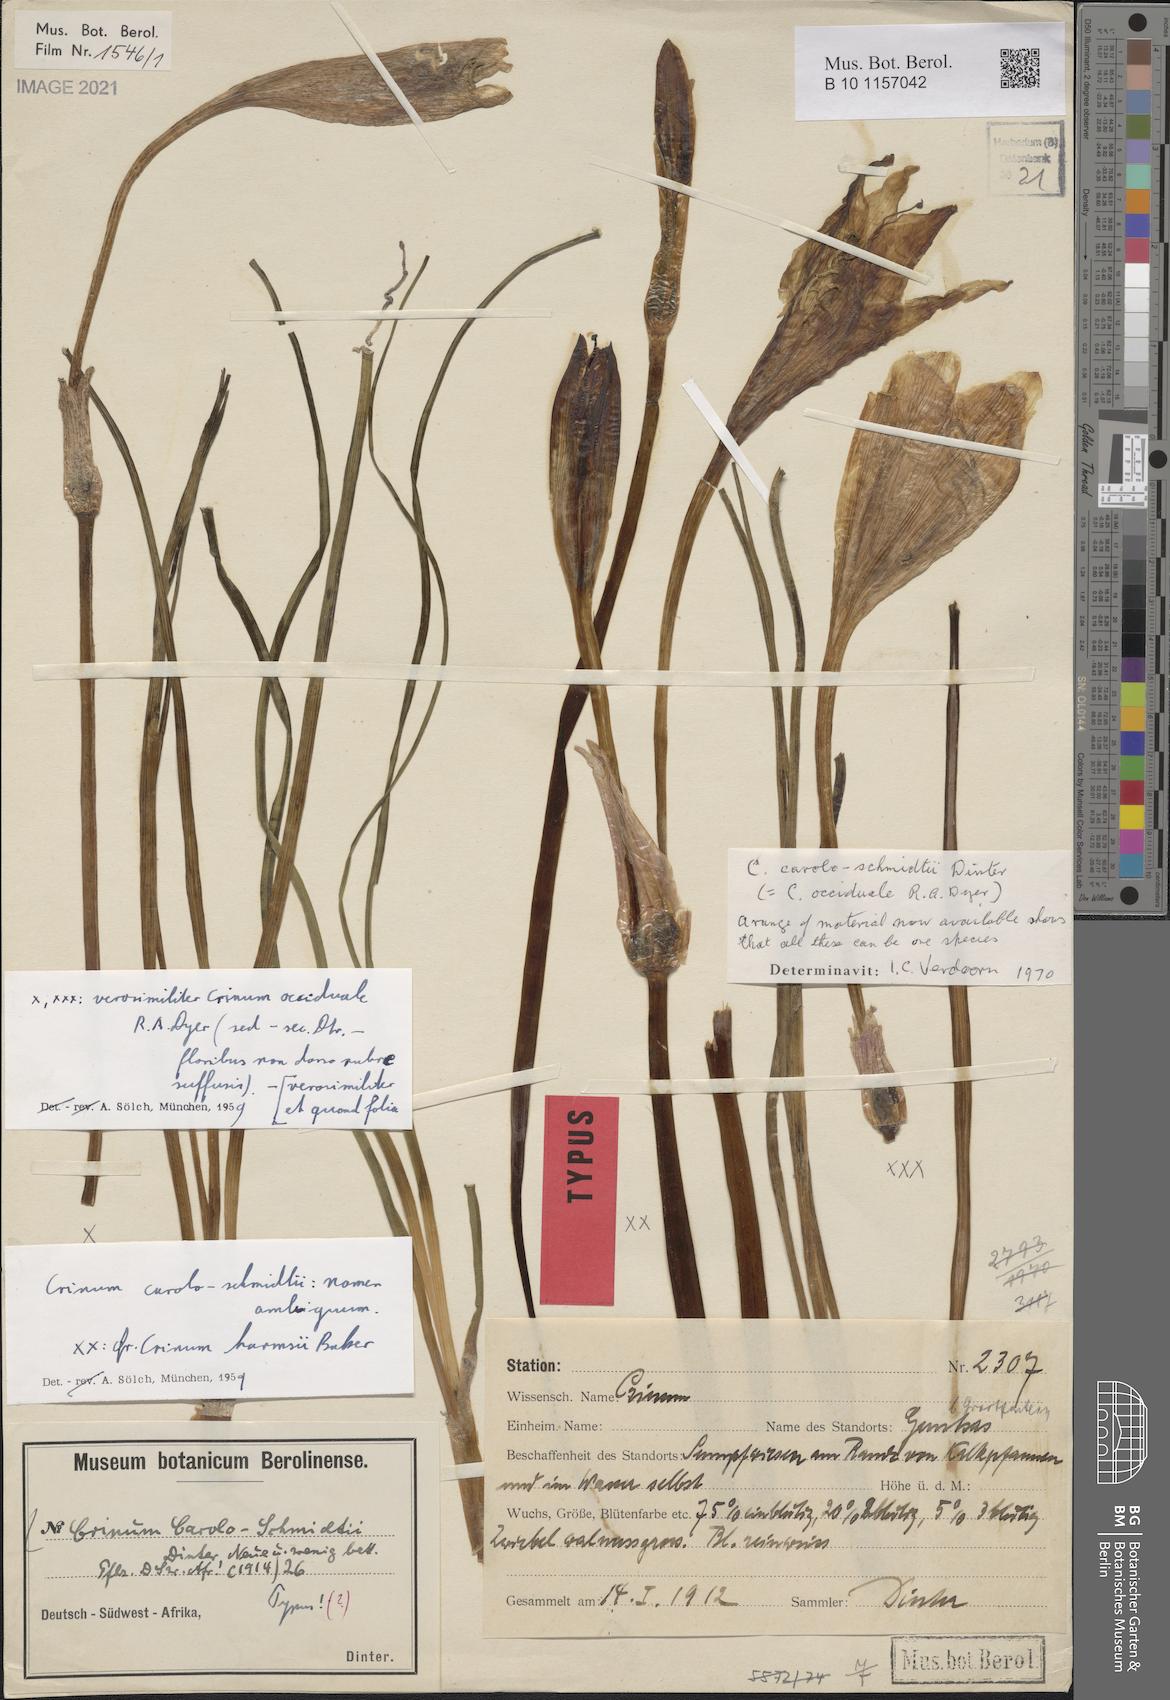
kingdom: Plantae
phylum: Tracheophyta
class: Liliopsida
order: Asparagales
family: Amaryllidaceae
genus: Crinum
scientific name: Crinum carolo-schmidtii
